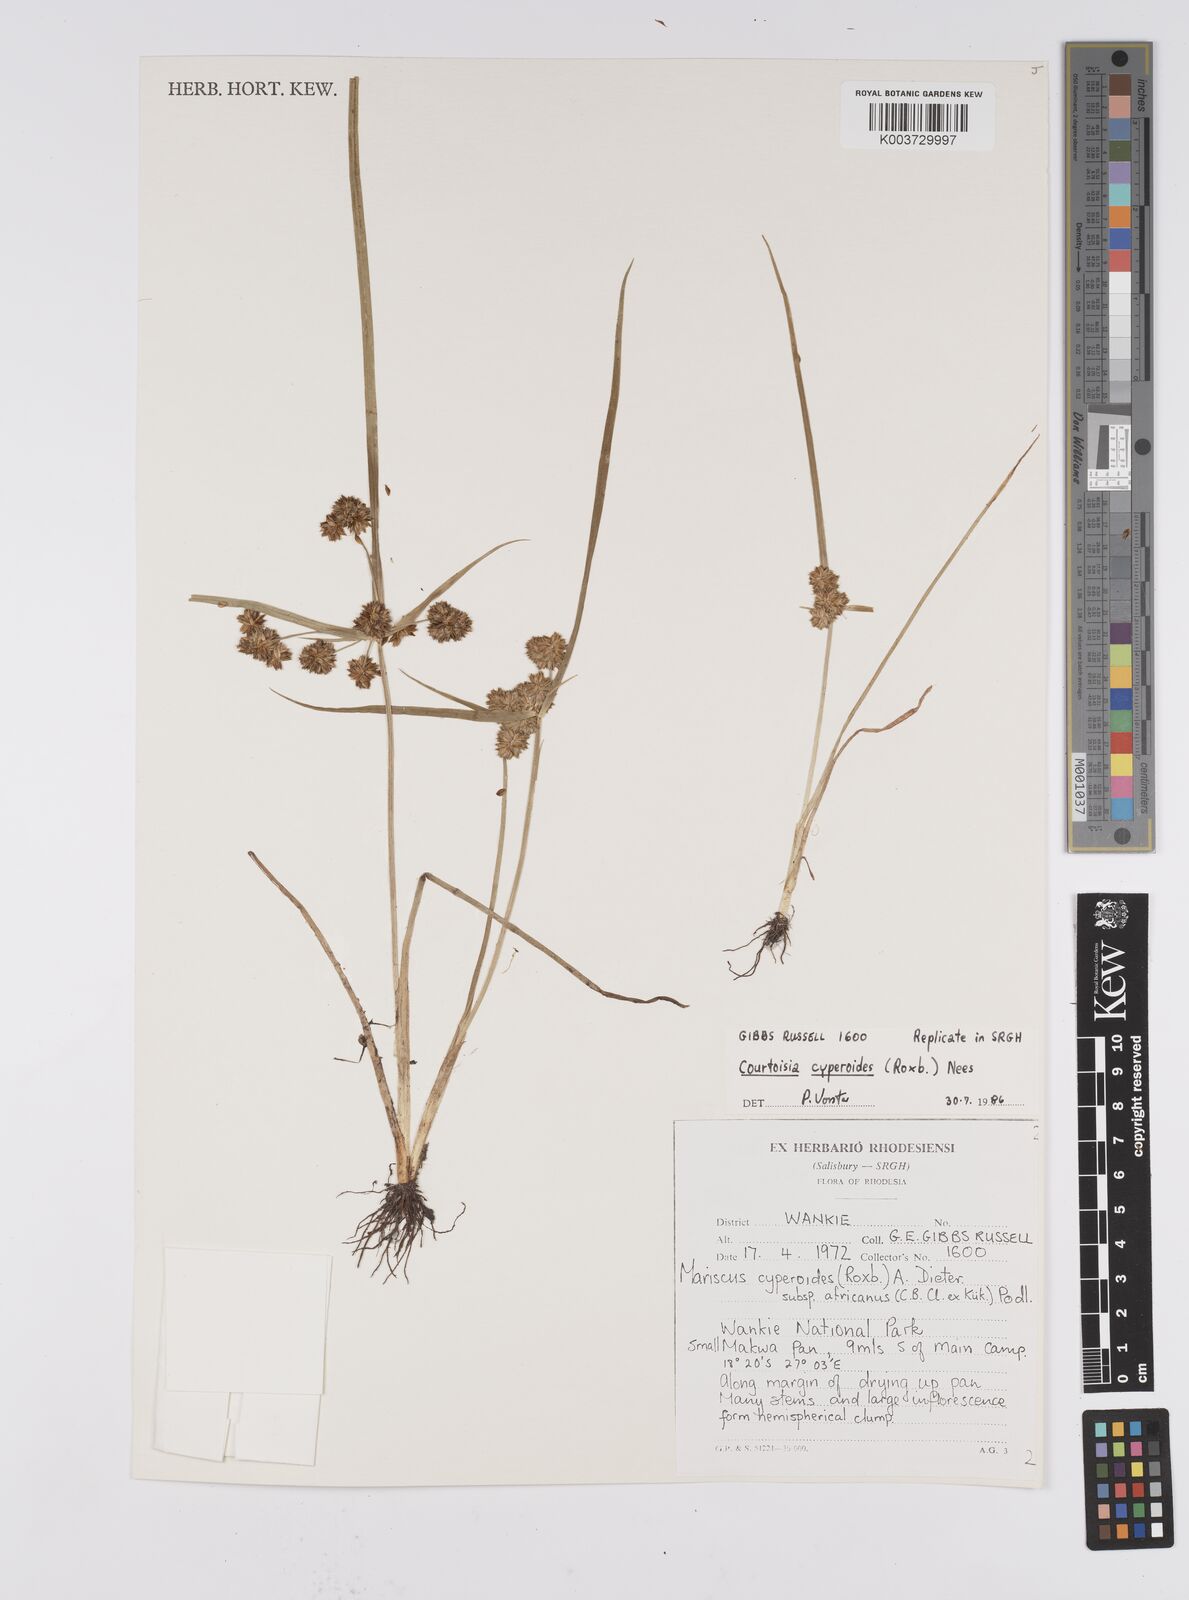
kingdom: Plantae
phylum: Tracheophyta
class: Liliopsida
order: Poales
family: Cyperaceae
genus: Cyperus
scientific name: Cyperus cyperoides
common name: Pacific island flat sedge
